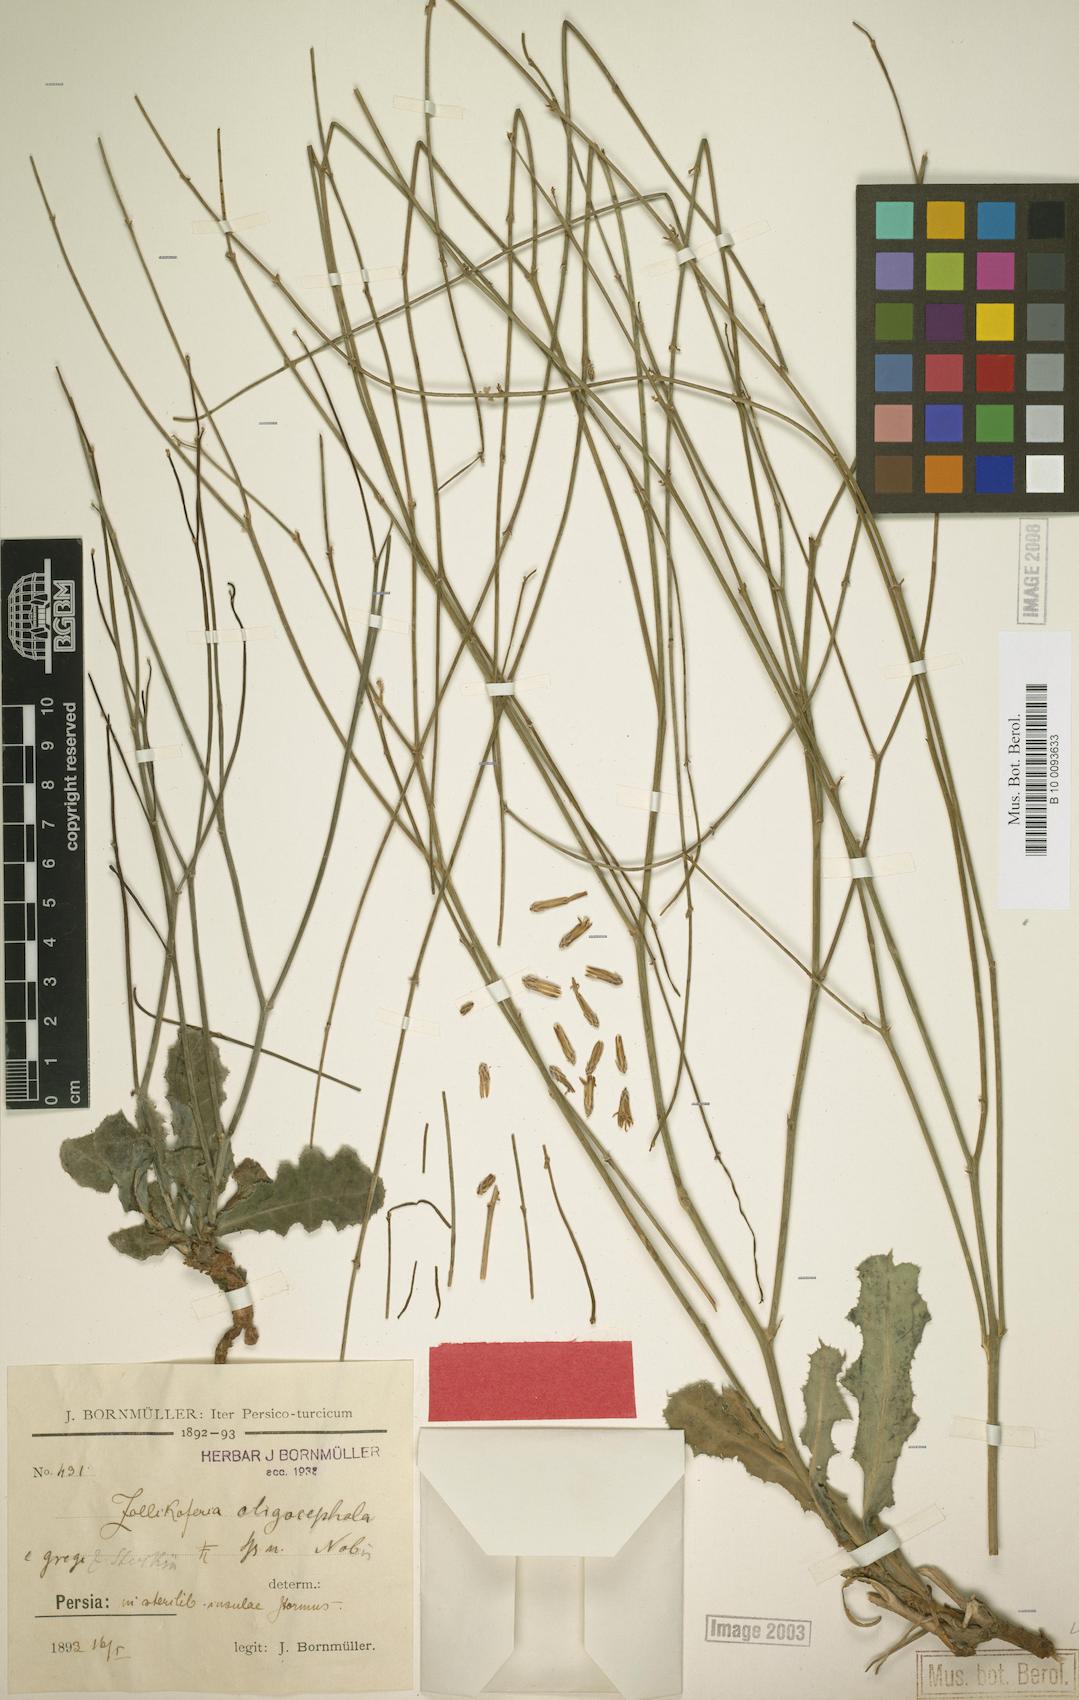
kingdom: Plantae
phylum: Tracheophyta
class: Magnoliopsida
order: Asterales
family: Asteraceae
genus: Launaea
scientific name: Launaea oligocephala
